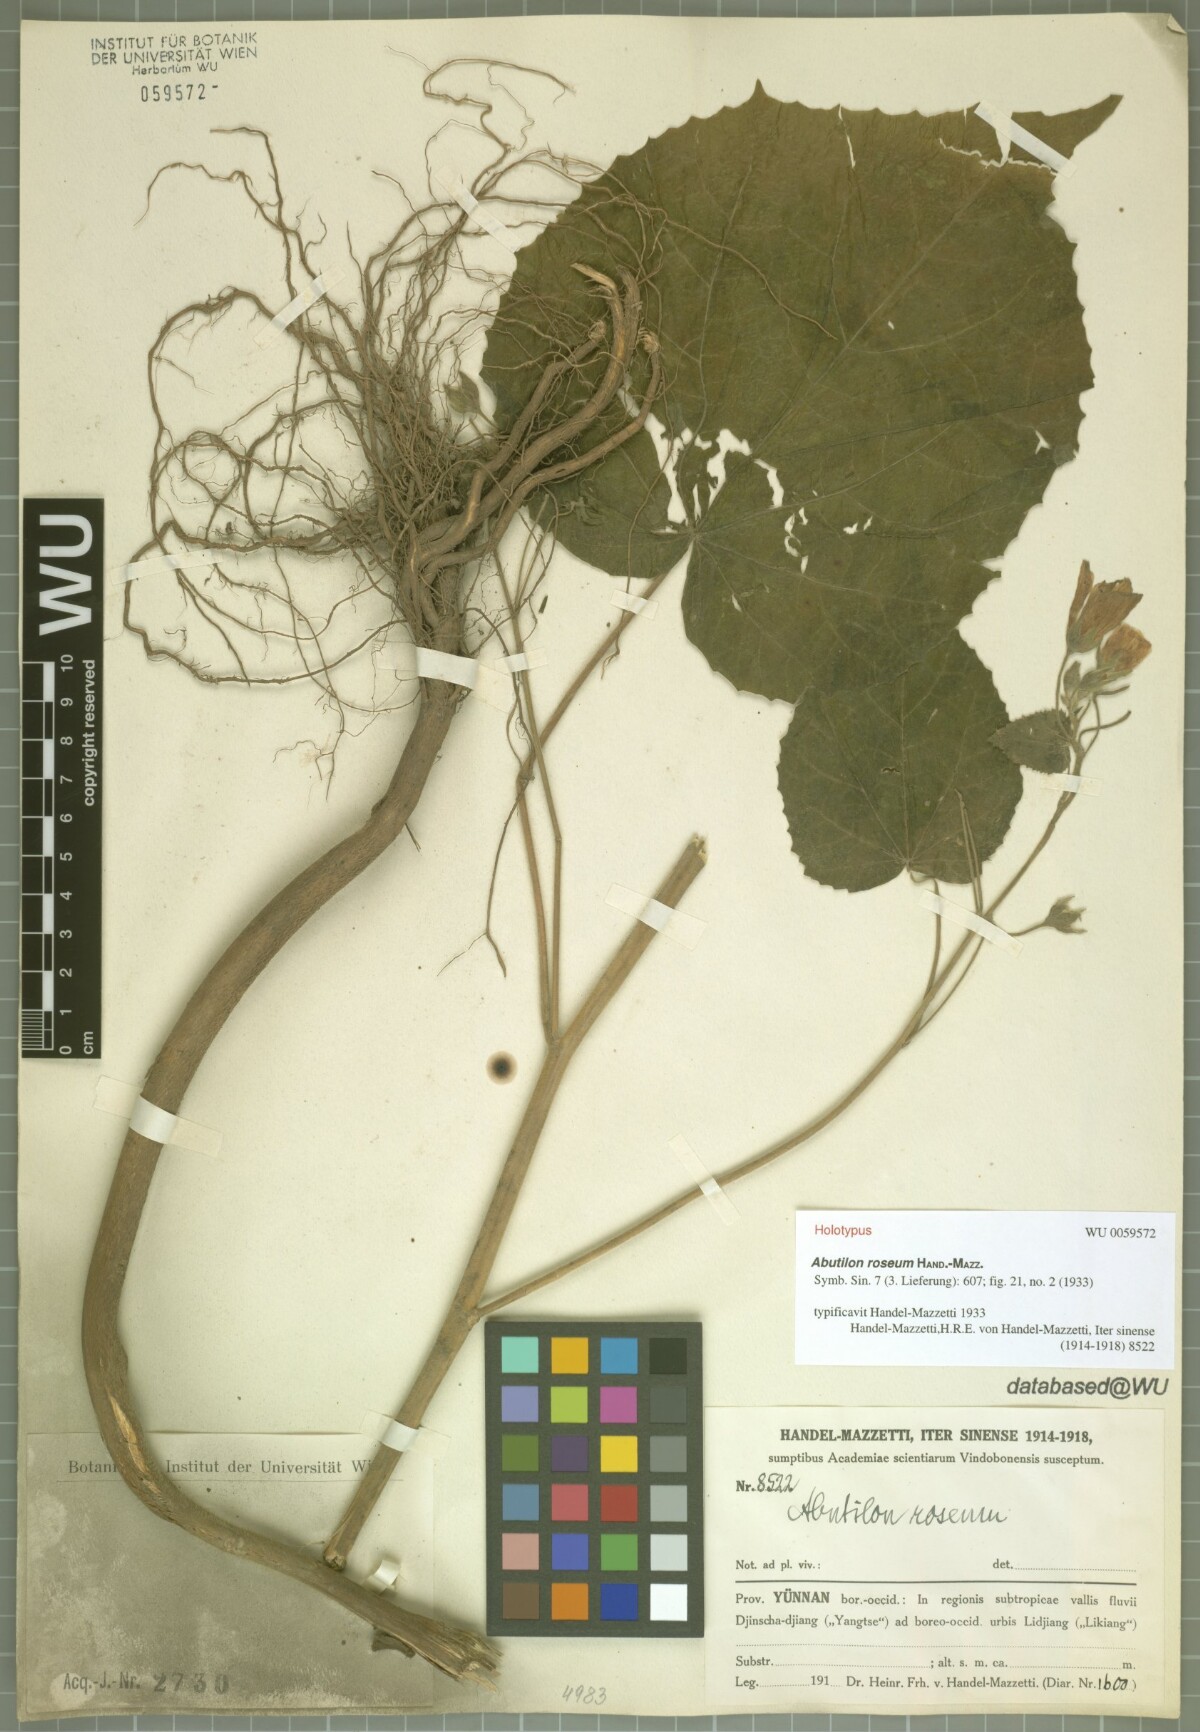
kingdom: Plantae
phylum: Tracheophyta
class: Magnoliopsida
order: Malvales
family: Malvaceae
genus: Abutilon
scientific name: Abutilon roseum
